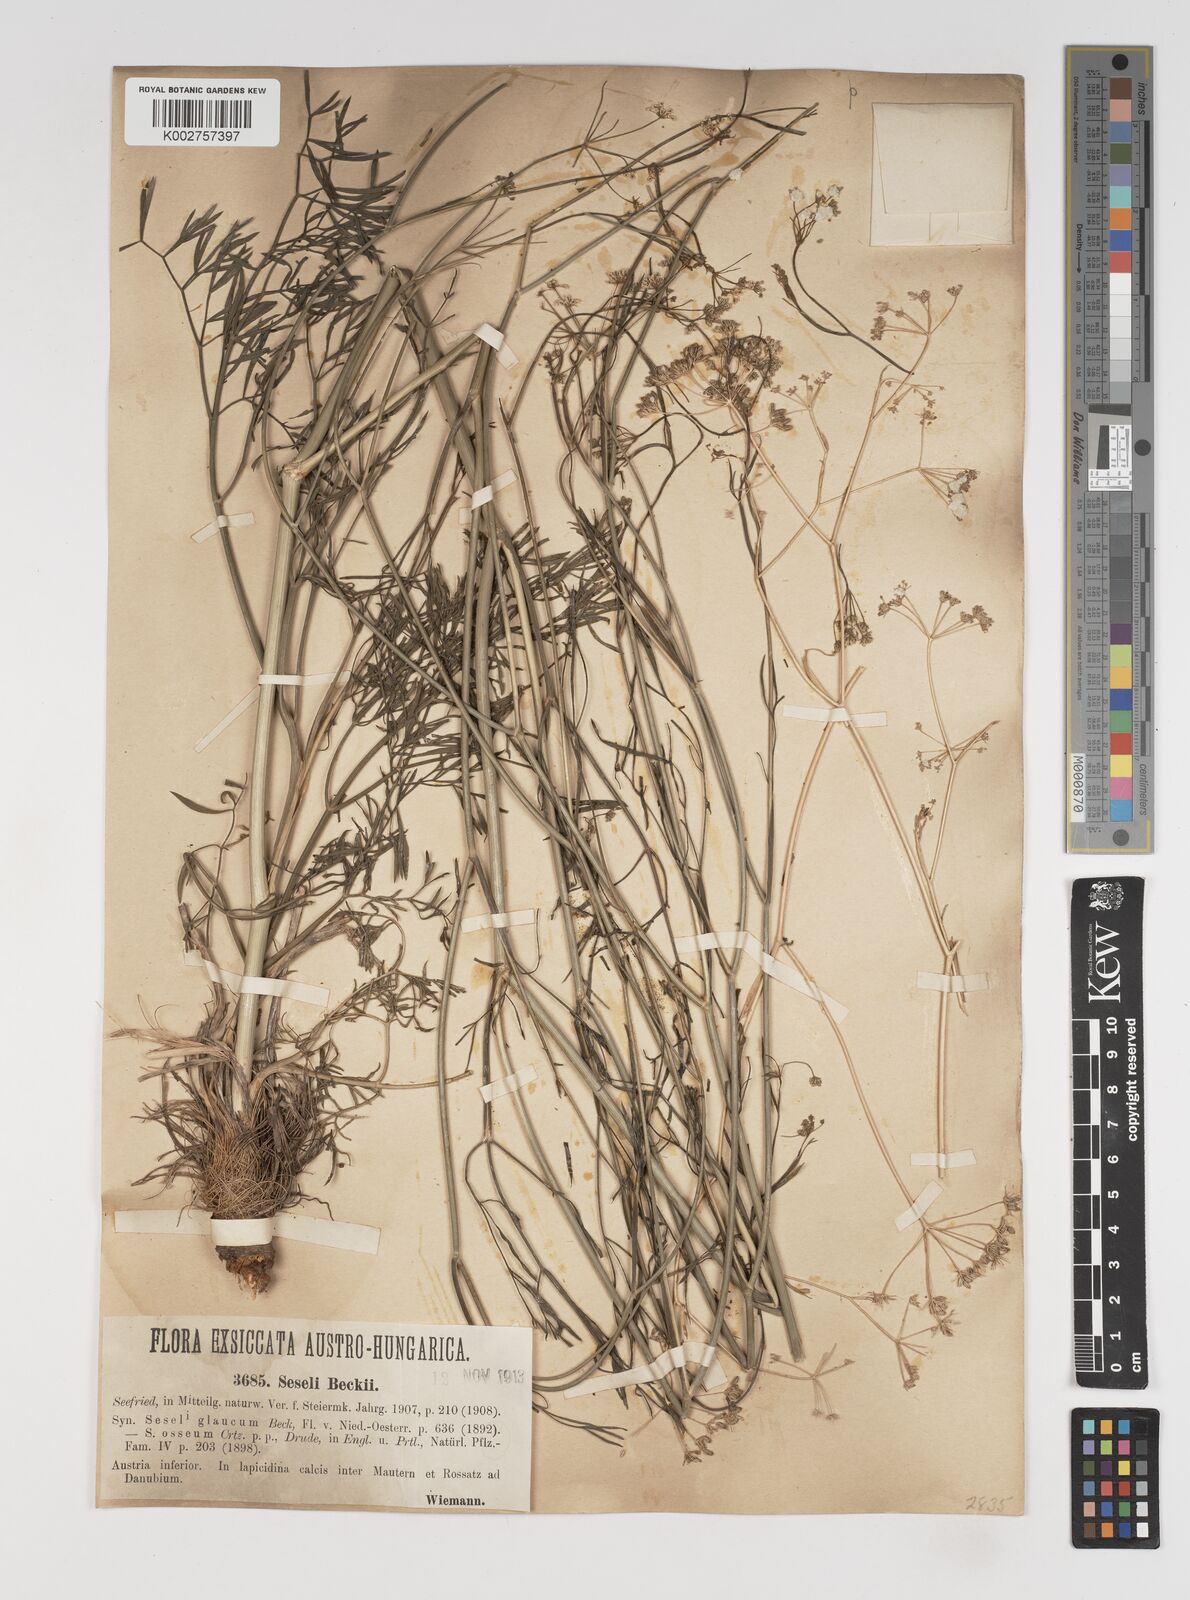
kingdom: Plantae
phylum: Tracheophyta
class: Magnoliopsida
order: Apiales
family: Apiaceae
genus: Seseli
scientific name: Seseli osseum
